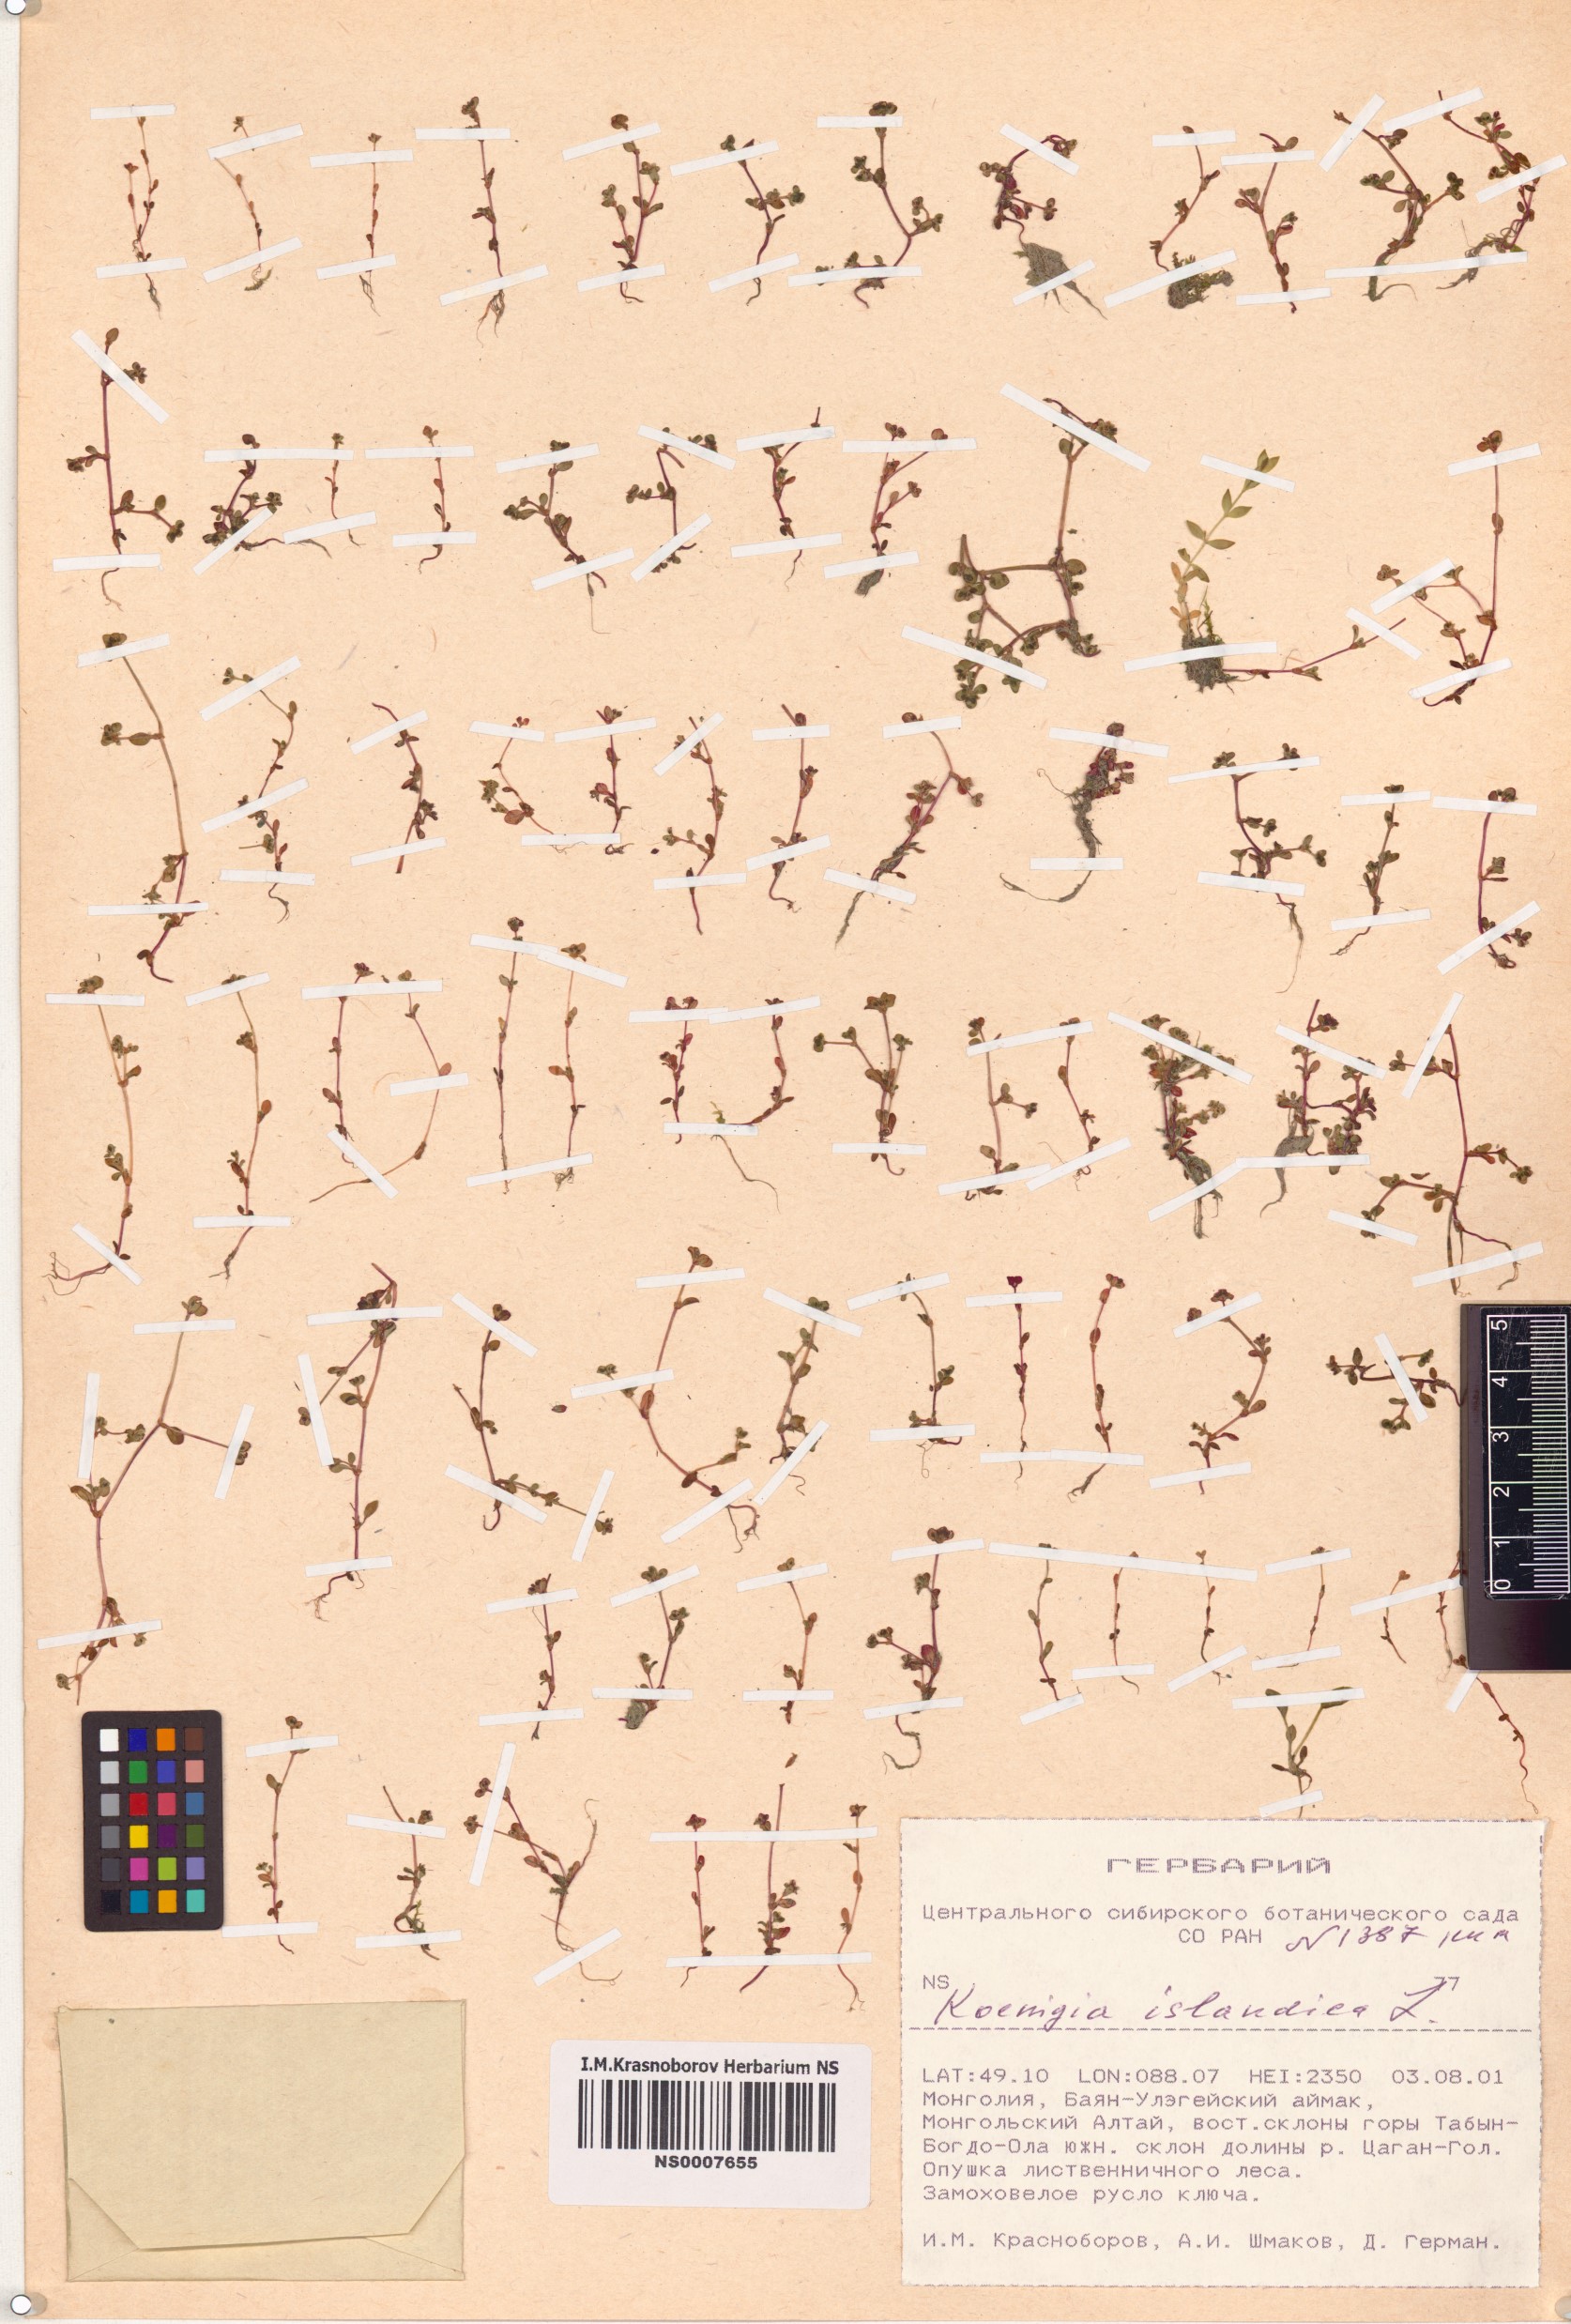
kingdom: Plantae
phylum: Tracheophyta
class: Magnoliopsida
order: Caryophyllales
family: Polygonaceae
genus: Koenigia
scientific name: Koenigia islandica
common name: Iceland-purslane
